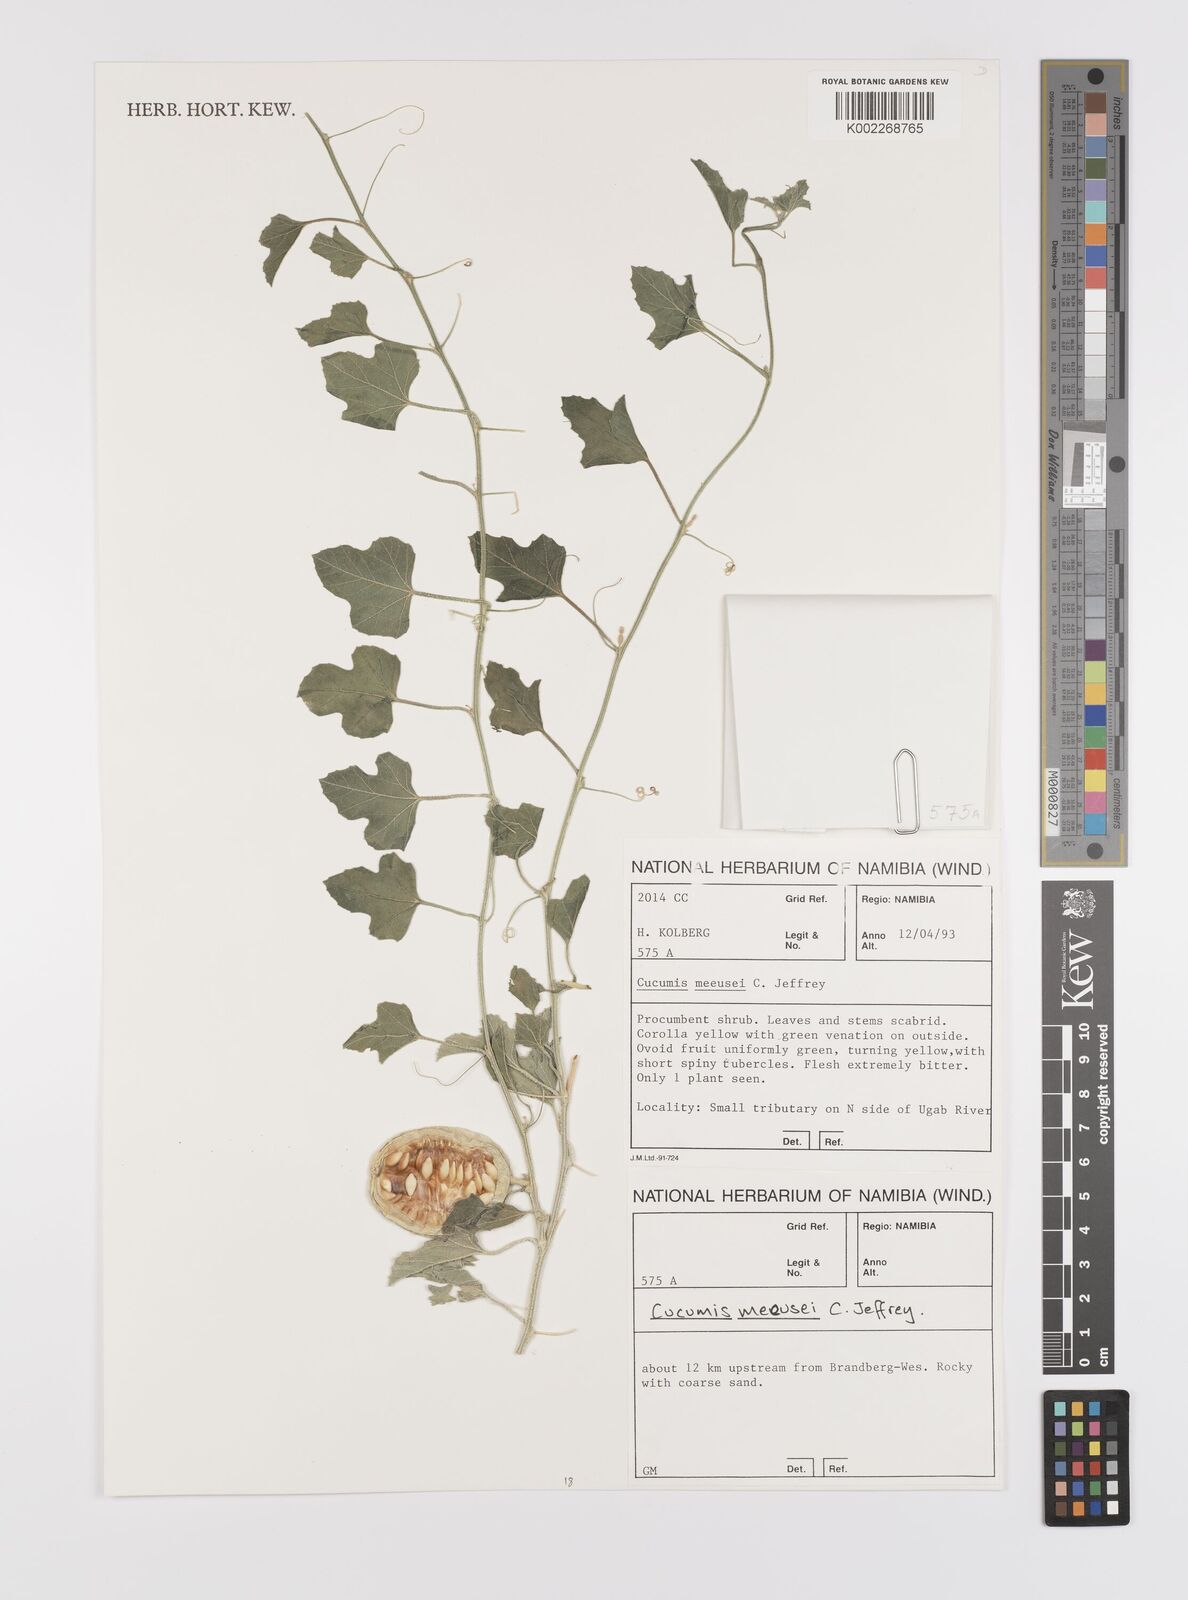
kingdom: Plantae
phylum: Tracheophyta
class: Magnoliopsida
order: Cucurbitales
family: Cucurbitaceae
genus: Cucumis
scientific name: Cucumis meeusei
